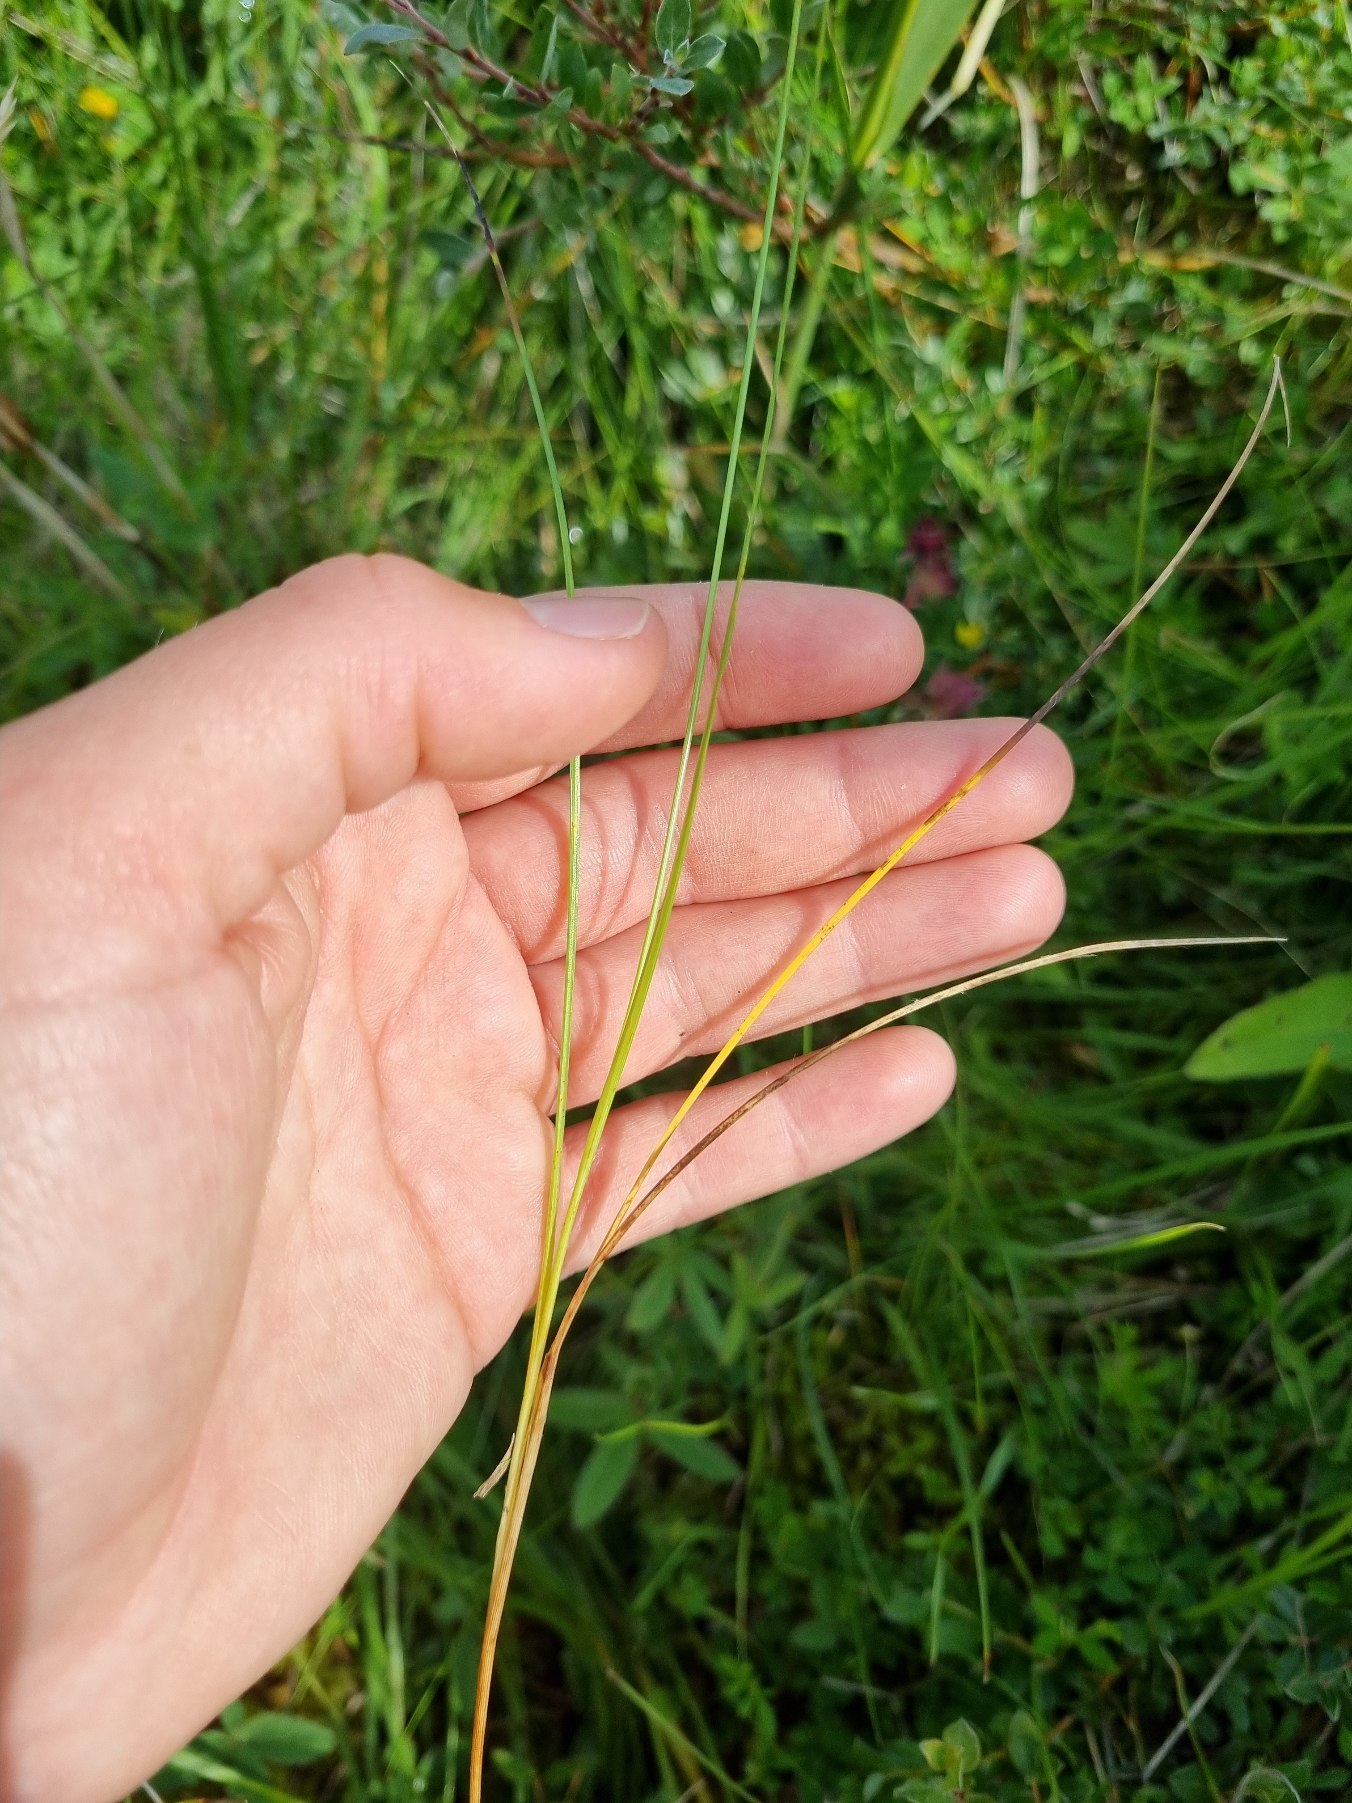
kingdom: Plantae
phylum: Tracheophyta
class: Liliopsida
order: Poales
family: Cyperaceae
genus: Carex
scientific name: Carex echinata
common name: Stjerne-star
